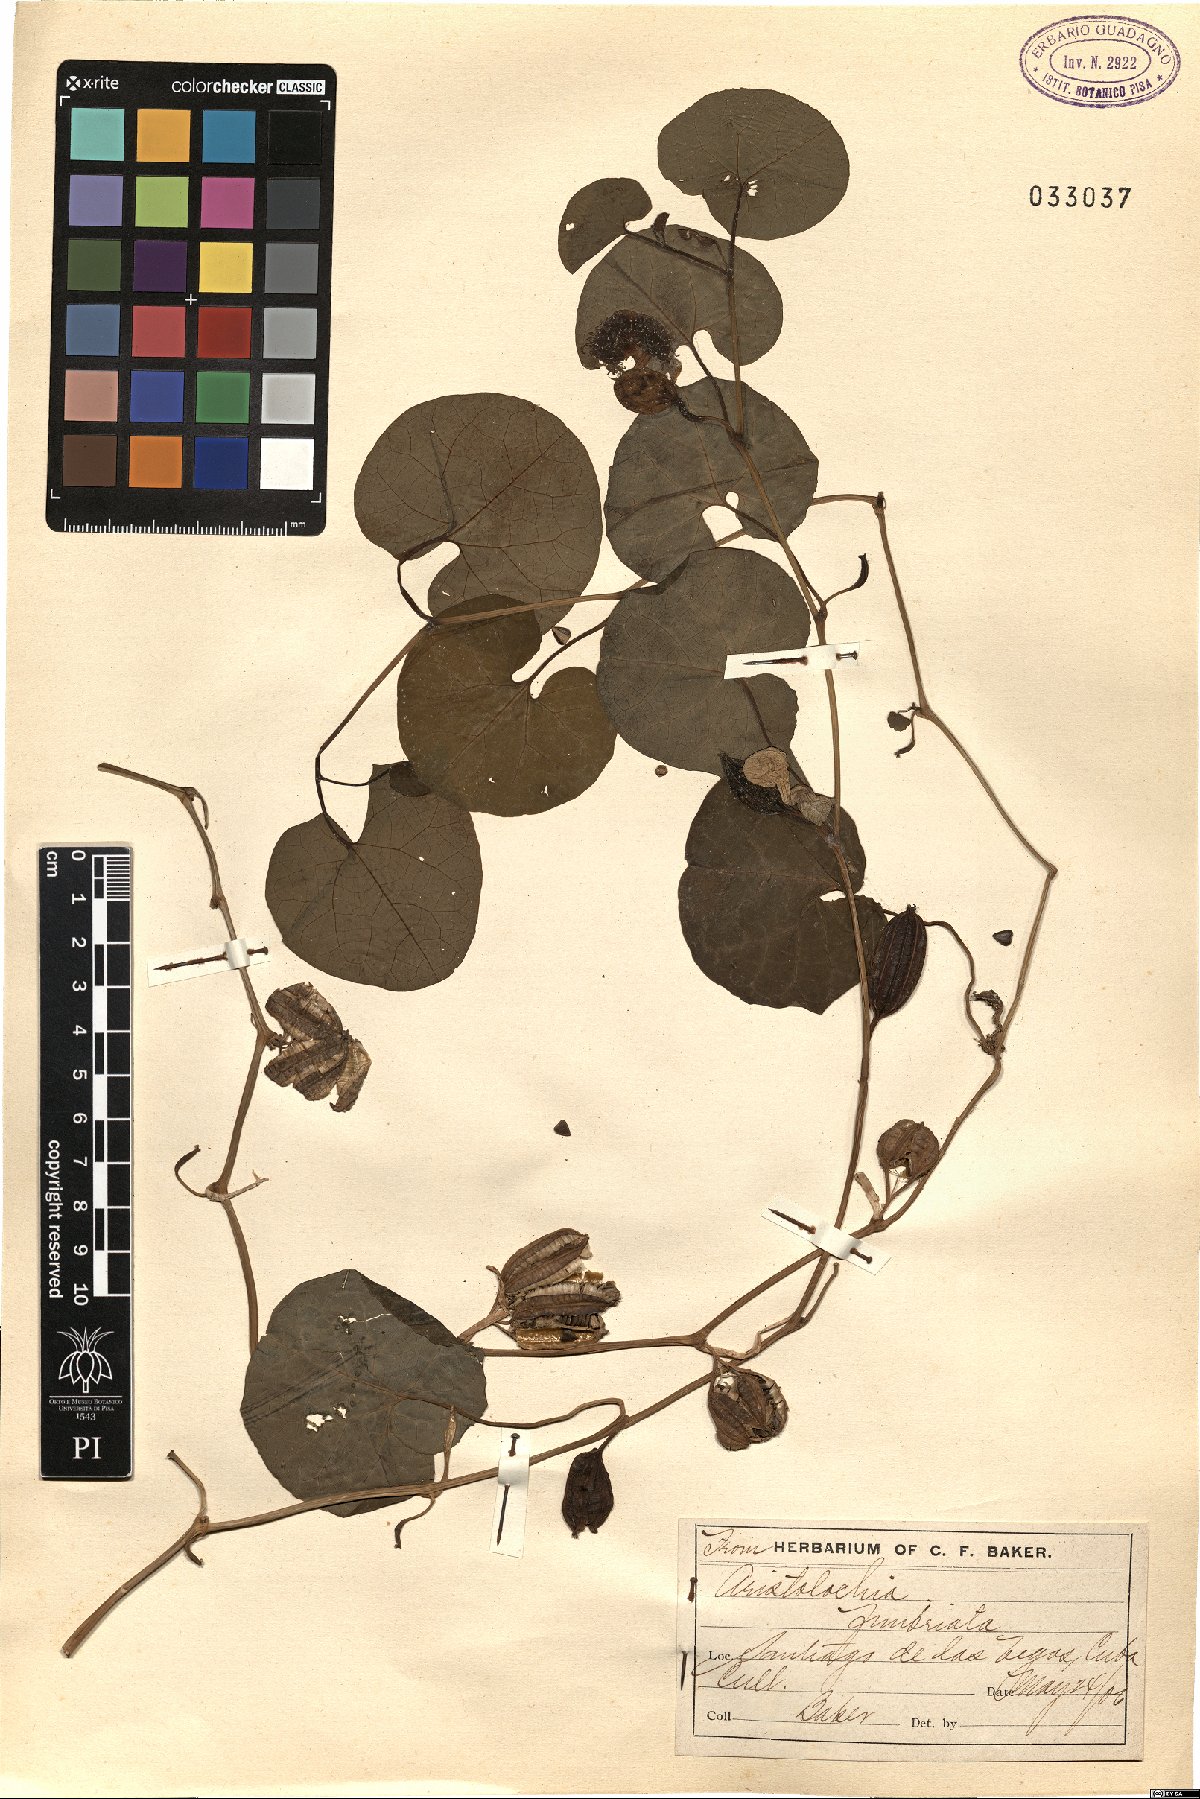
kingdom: Plantae
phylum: Tracheophyta
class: Magnoliopsida
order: Piperales
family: Aristolochiaceae
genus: Aristolochia
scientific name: Aristolochia fimbriata
